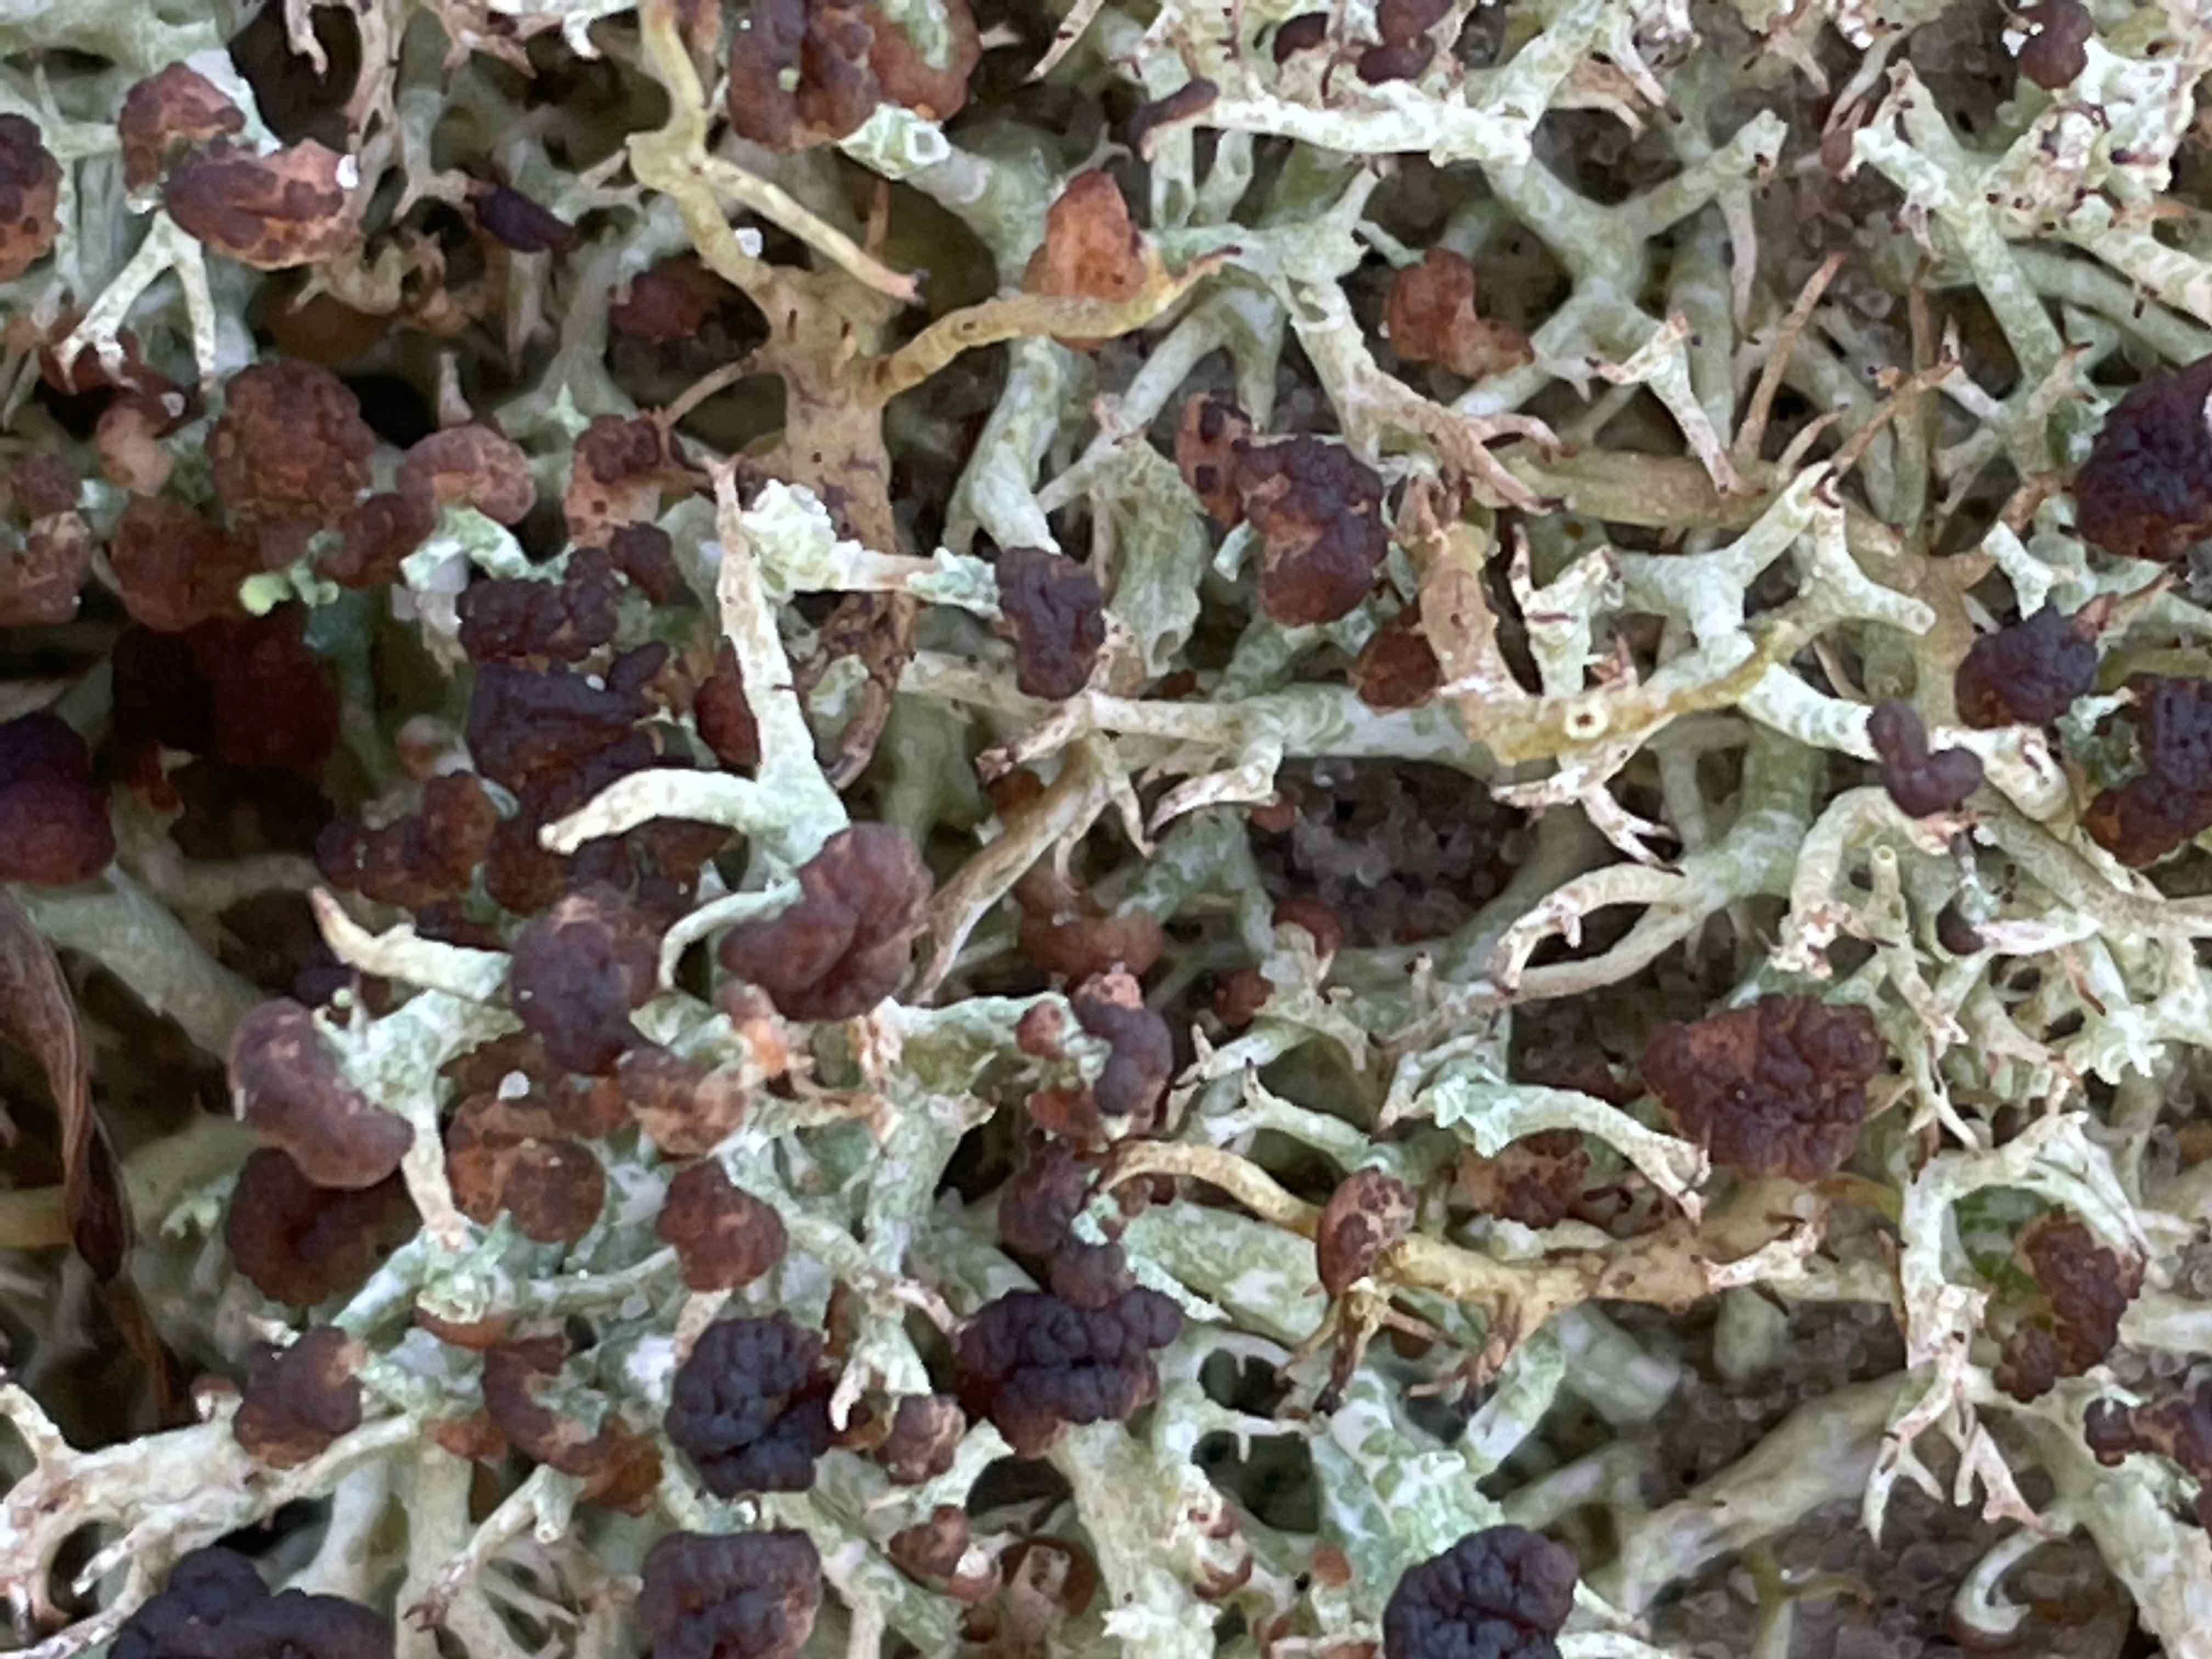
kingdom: Fungi
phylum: Basidiomycota
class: Tremellomycetes
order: Filobasidiales
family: Filobasidiaceae
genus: Zyzygomyces
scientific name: Zyzygomyces bachmannii
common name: rensdyrlav-snyltehjerne
